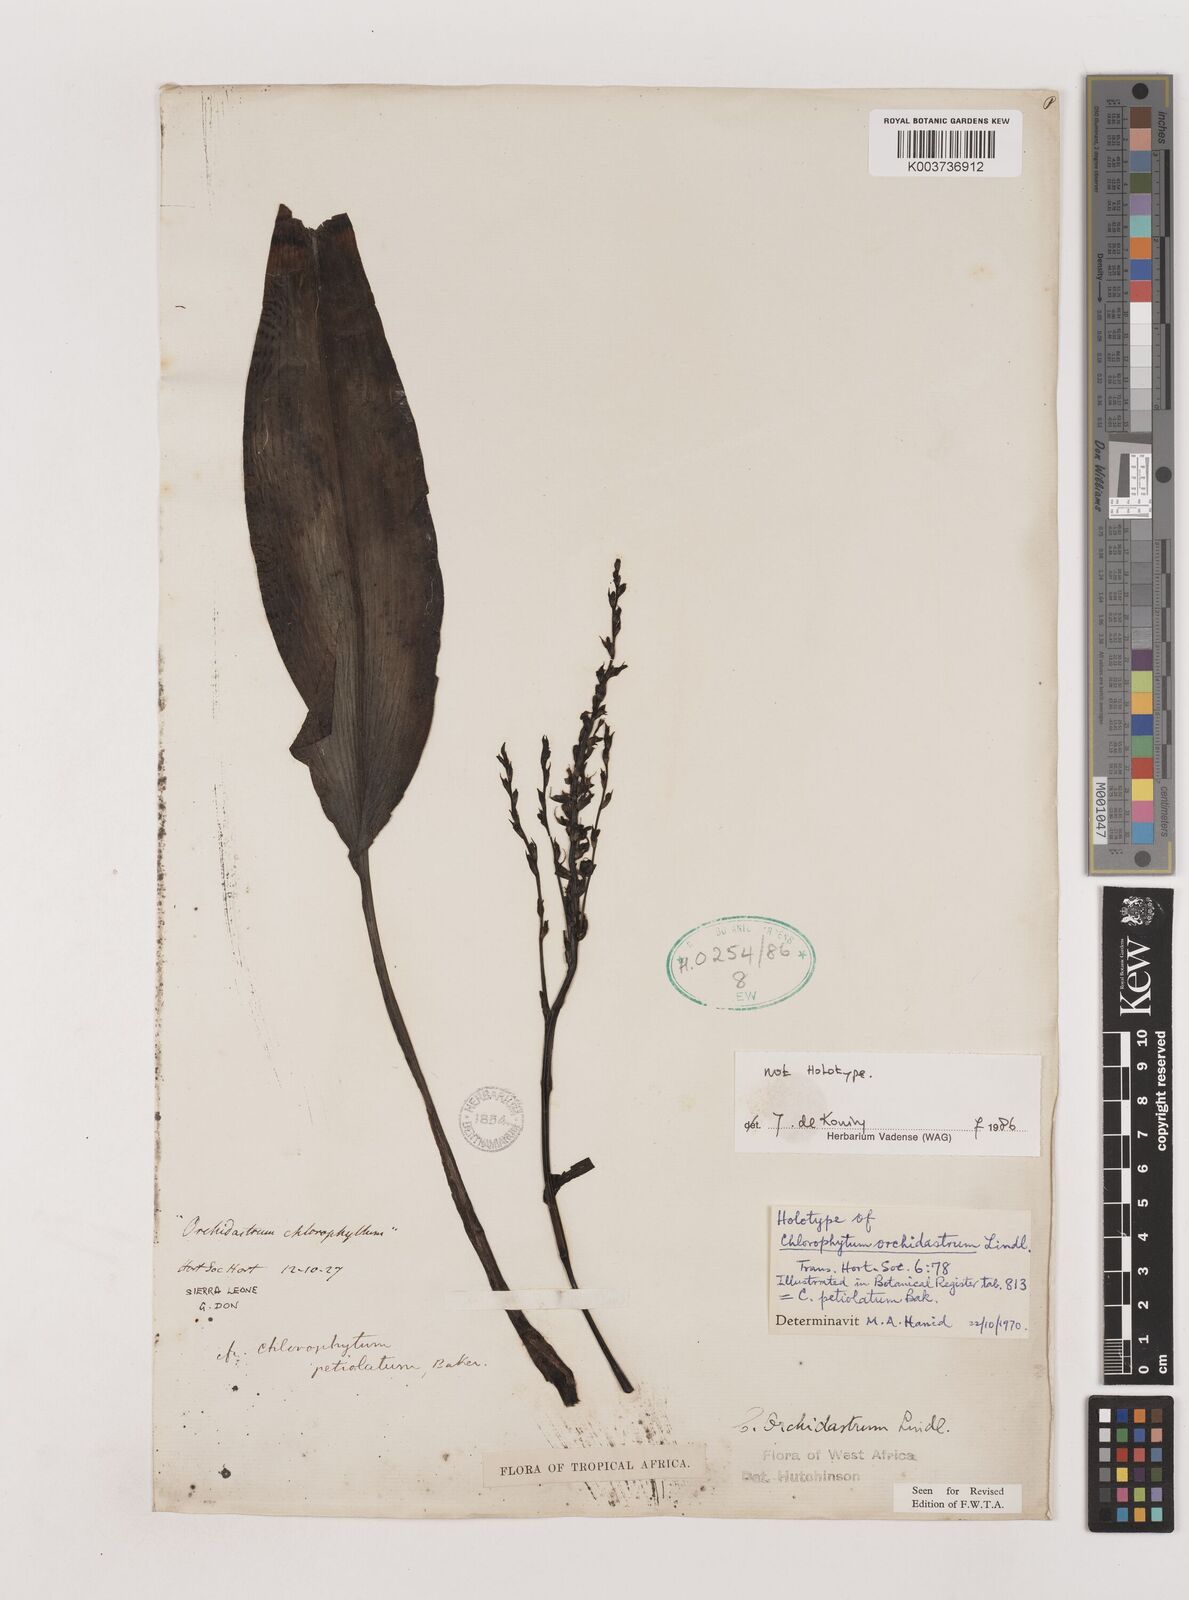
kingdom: Plantae
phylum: Tracheophyta
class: Liliopsida
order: Asparagales
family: Asparagaceae
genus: Chlorophytum
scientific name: Chlorophytum orchidastrum
